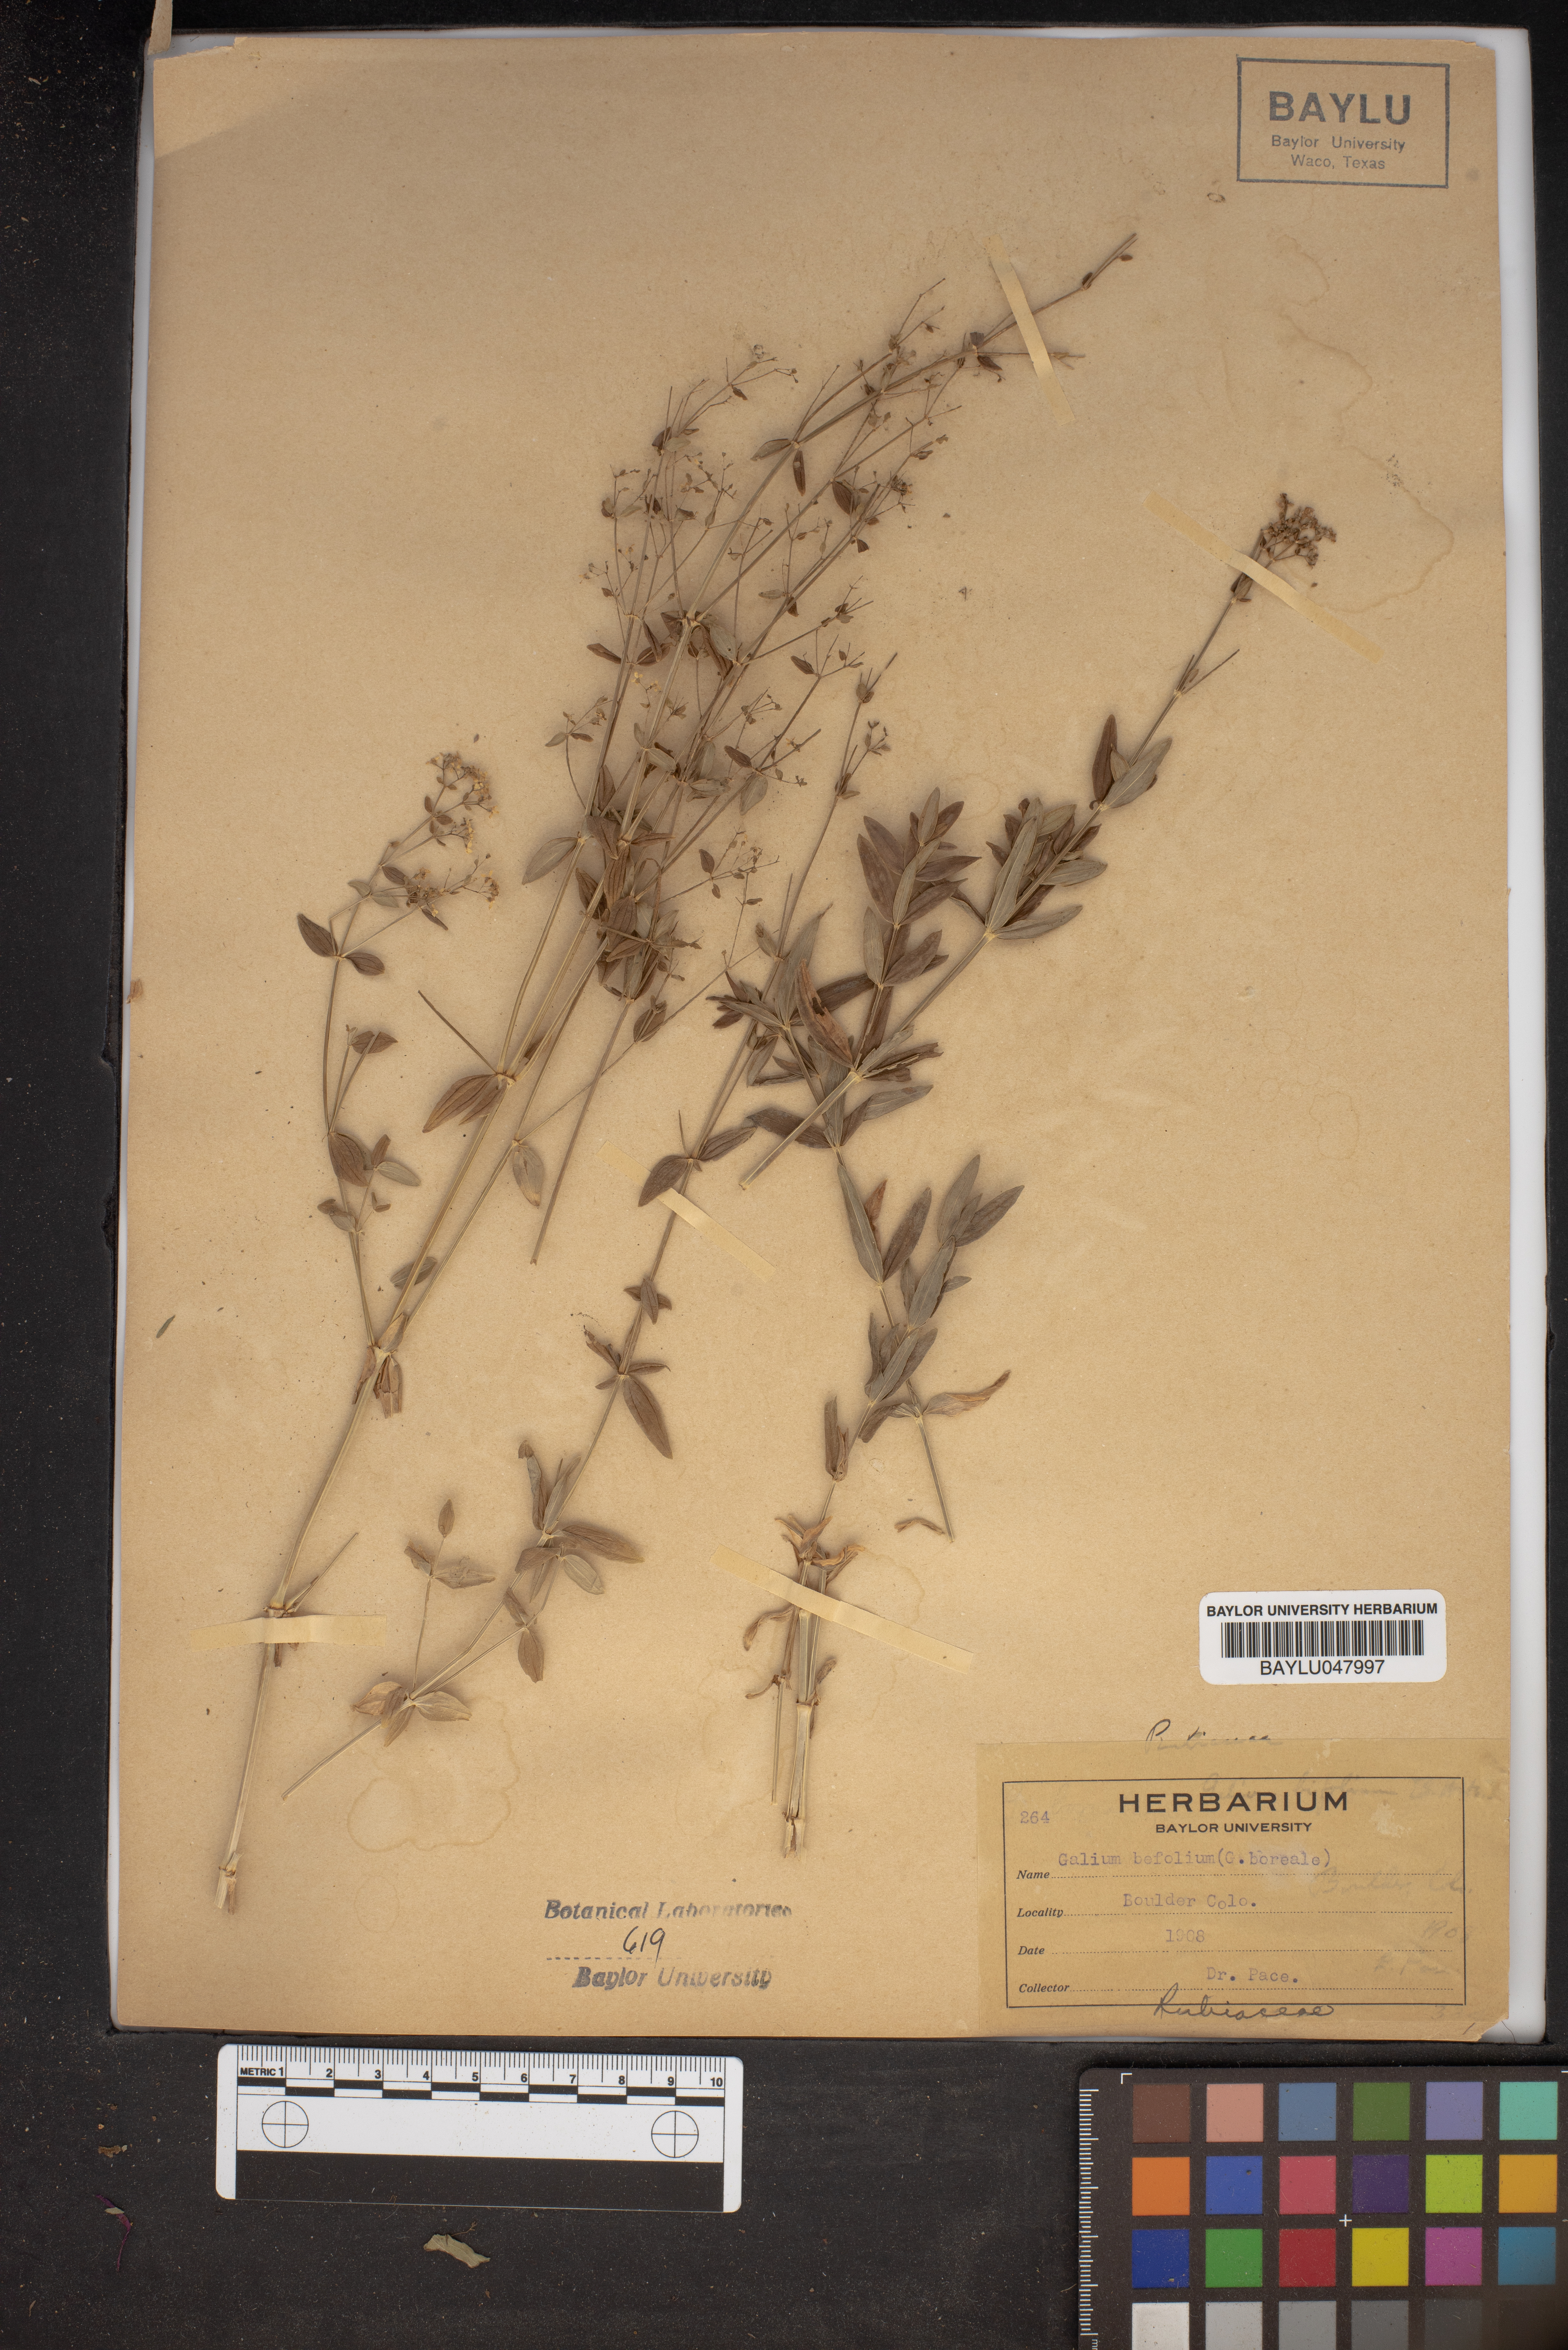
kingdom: Plantae
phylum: Tracheophyta
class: Magnoliopsida
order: Gentianales
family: Rubiaceae
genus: Galium
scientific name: Galium bifolium
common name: Low mountain bedstraw
